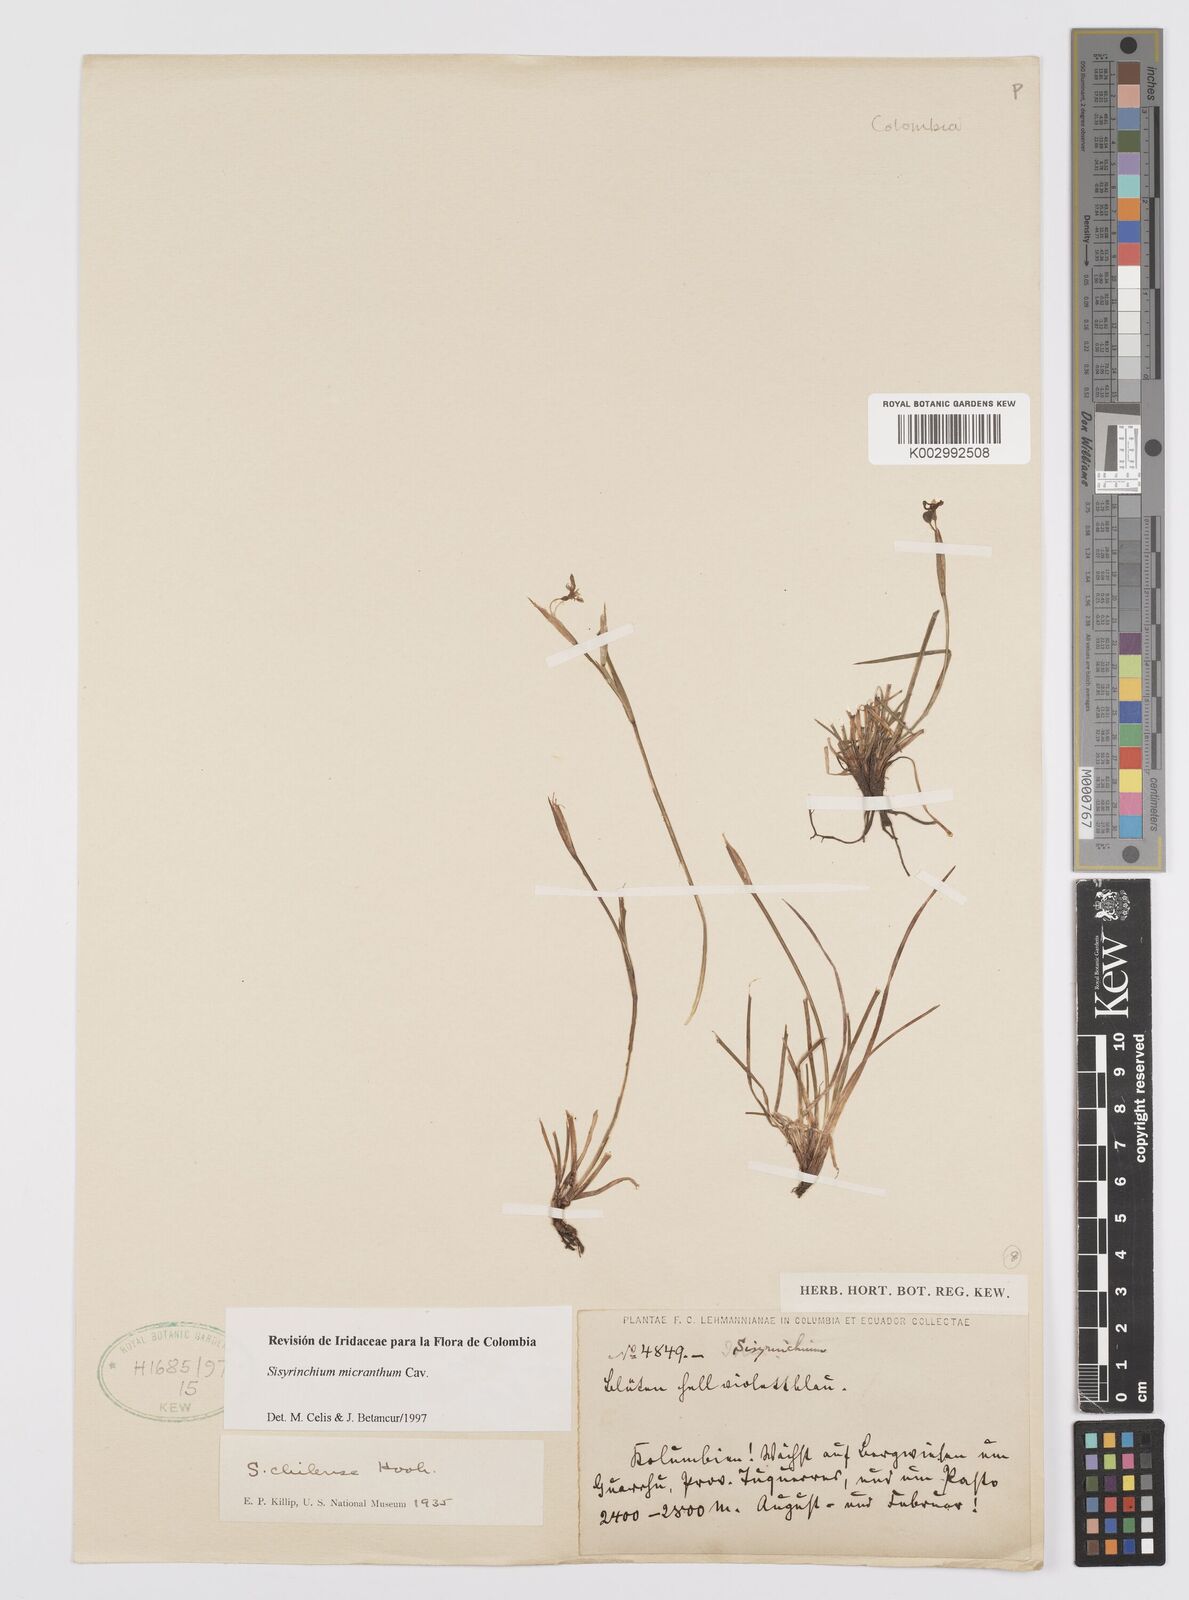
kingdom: Plantae
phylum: Tracheophyta
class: Liliopsida
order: Asparagales
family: Iridaceae
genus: Sisyrinchium
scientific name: Sisyrinchium micranthum
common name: Bermuda pigroot
